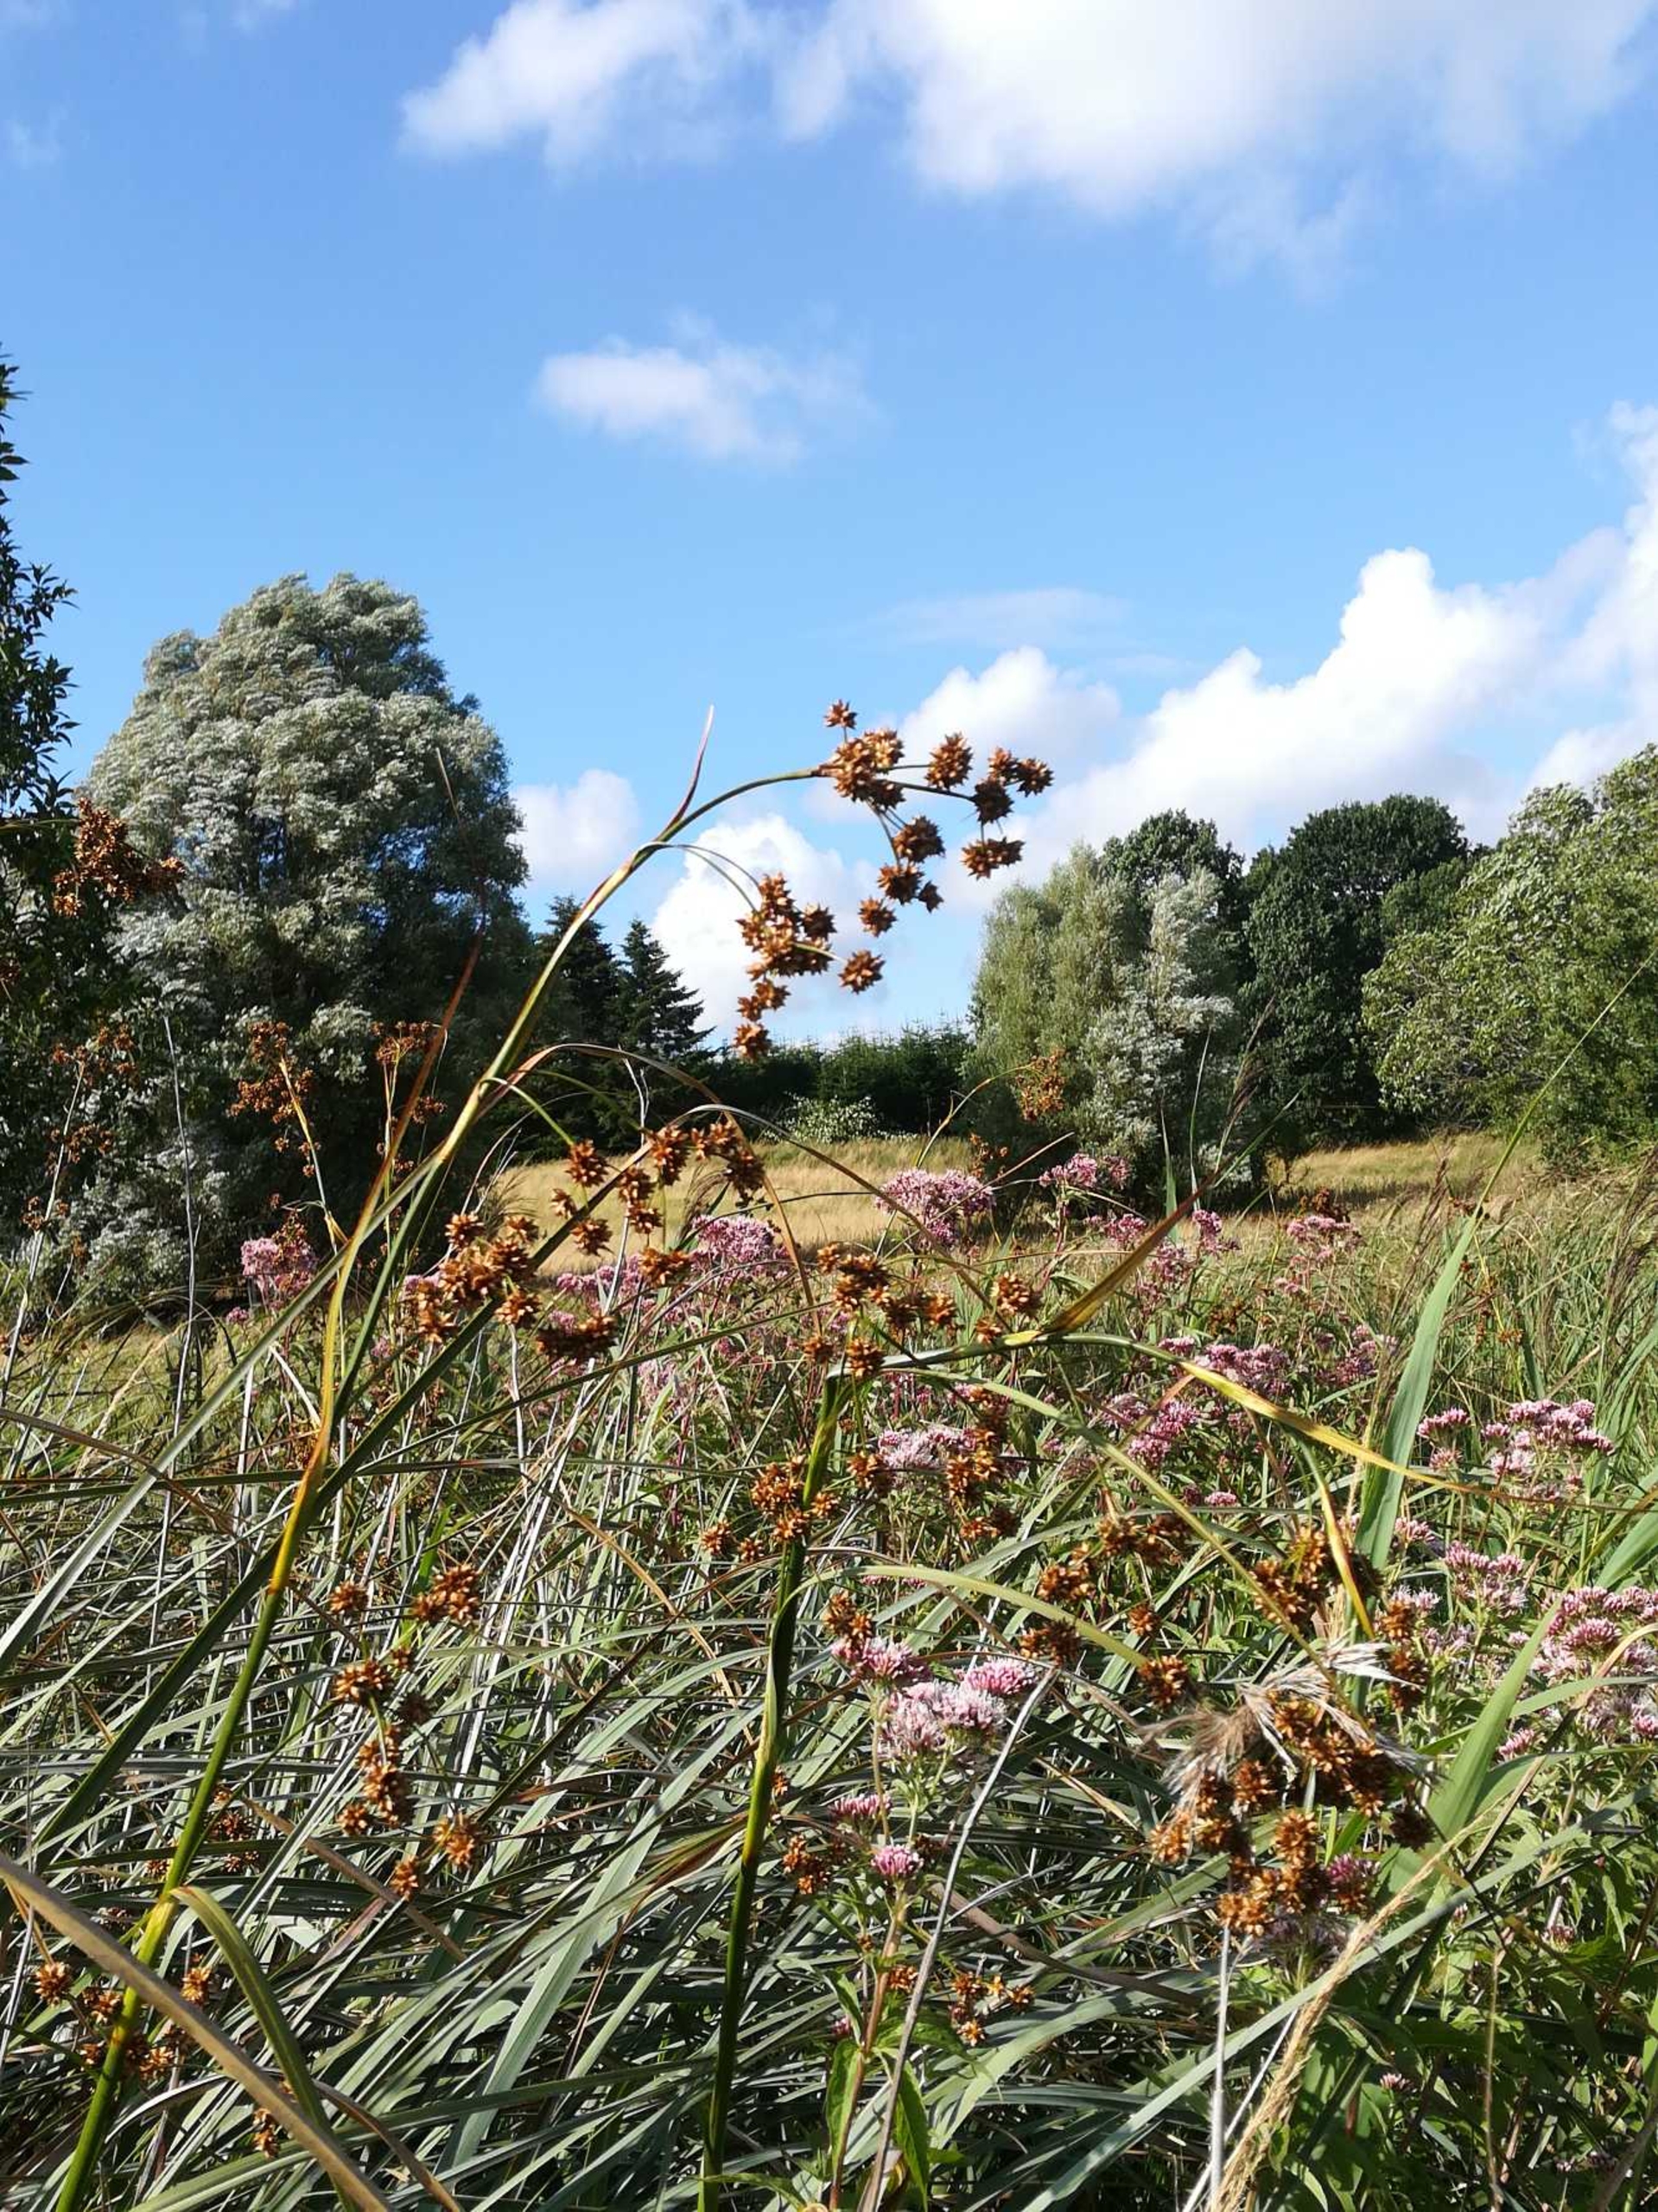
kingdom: Plantae
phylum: Tracheophyta
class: Liliopsida
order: Poales
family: Cyperaceae
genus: Cladium
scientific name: Cladium mariscus
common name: Hvas avneknippe
